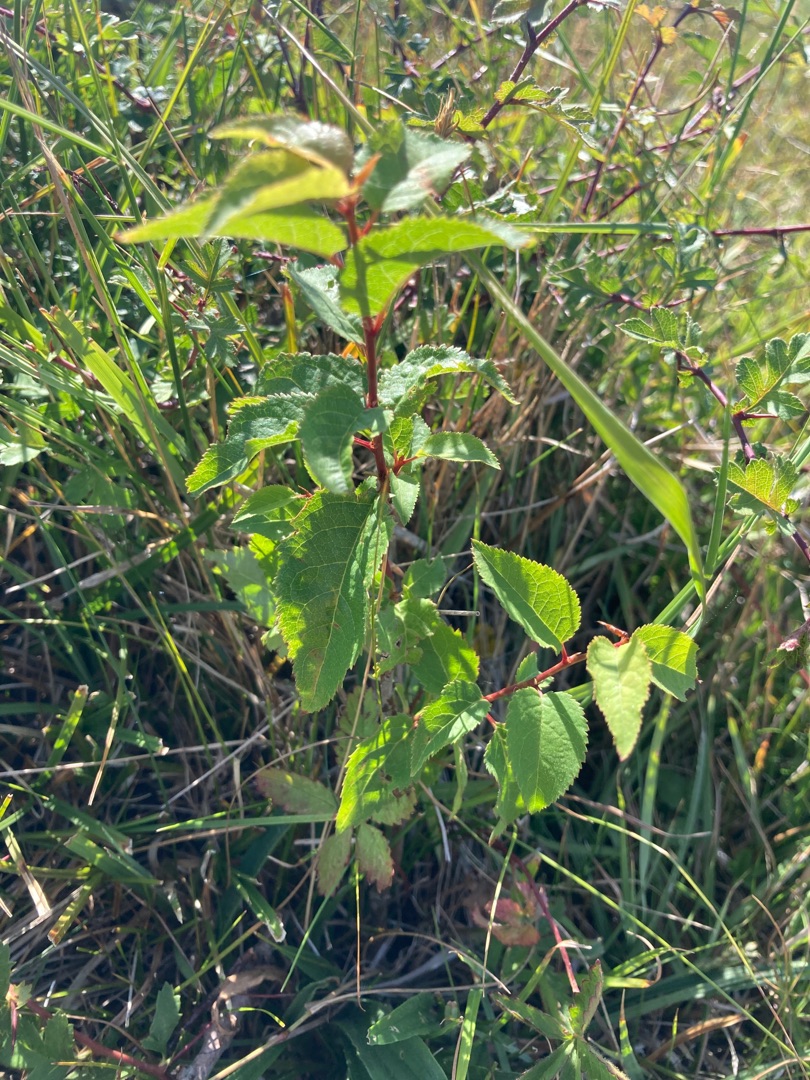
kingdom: Plantae
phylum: Tracheophyta
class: Magnoliopsida
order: Rosales
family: Rosaceae
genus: Prunus
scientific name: Prunus cerasifera
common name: Mirabel
